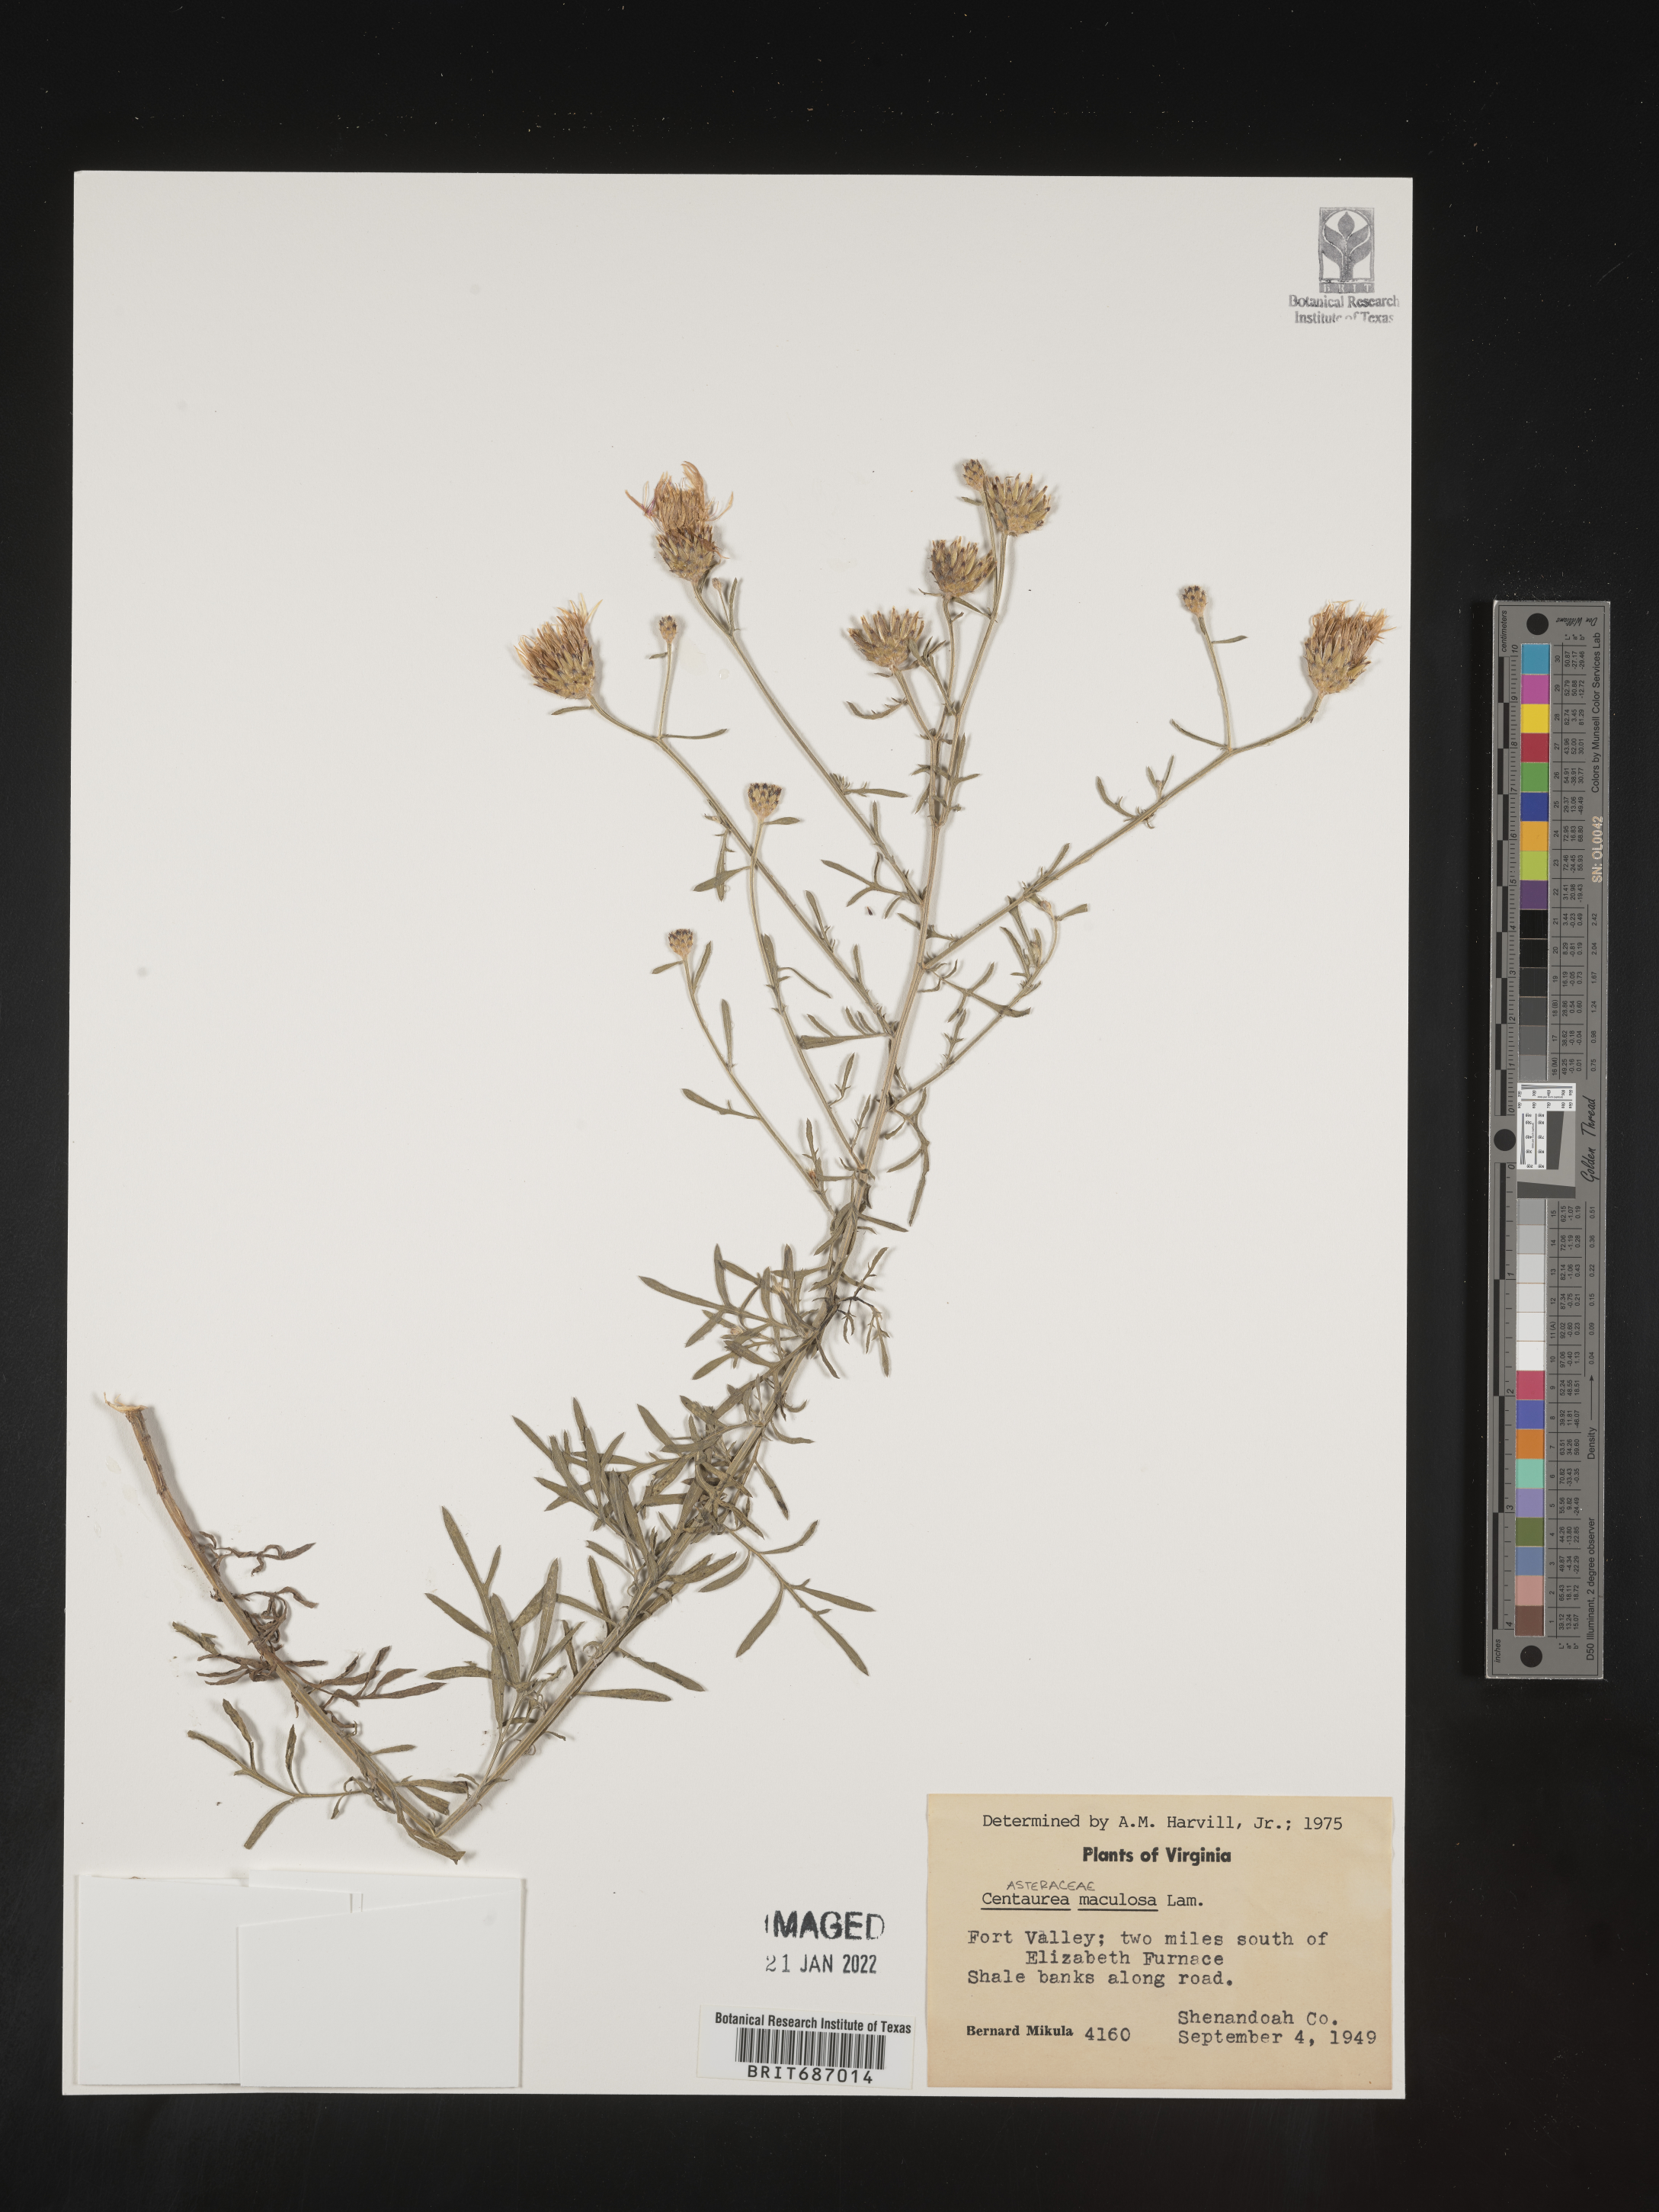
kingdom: Plantae
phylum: Tracheophyta
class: Magnoliopsida
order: Asterales
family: Asteraceae
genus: Centaurea
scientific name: Centaurea
